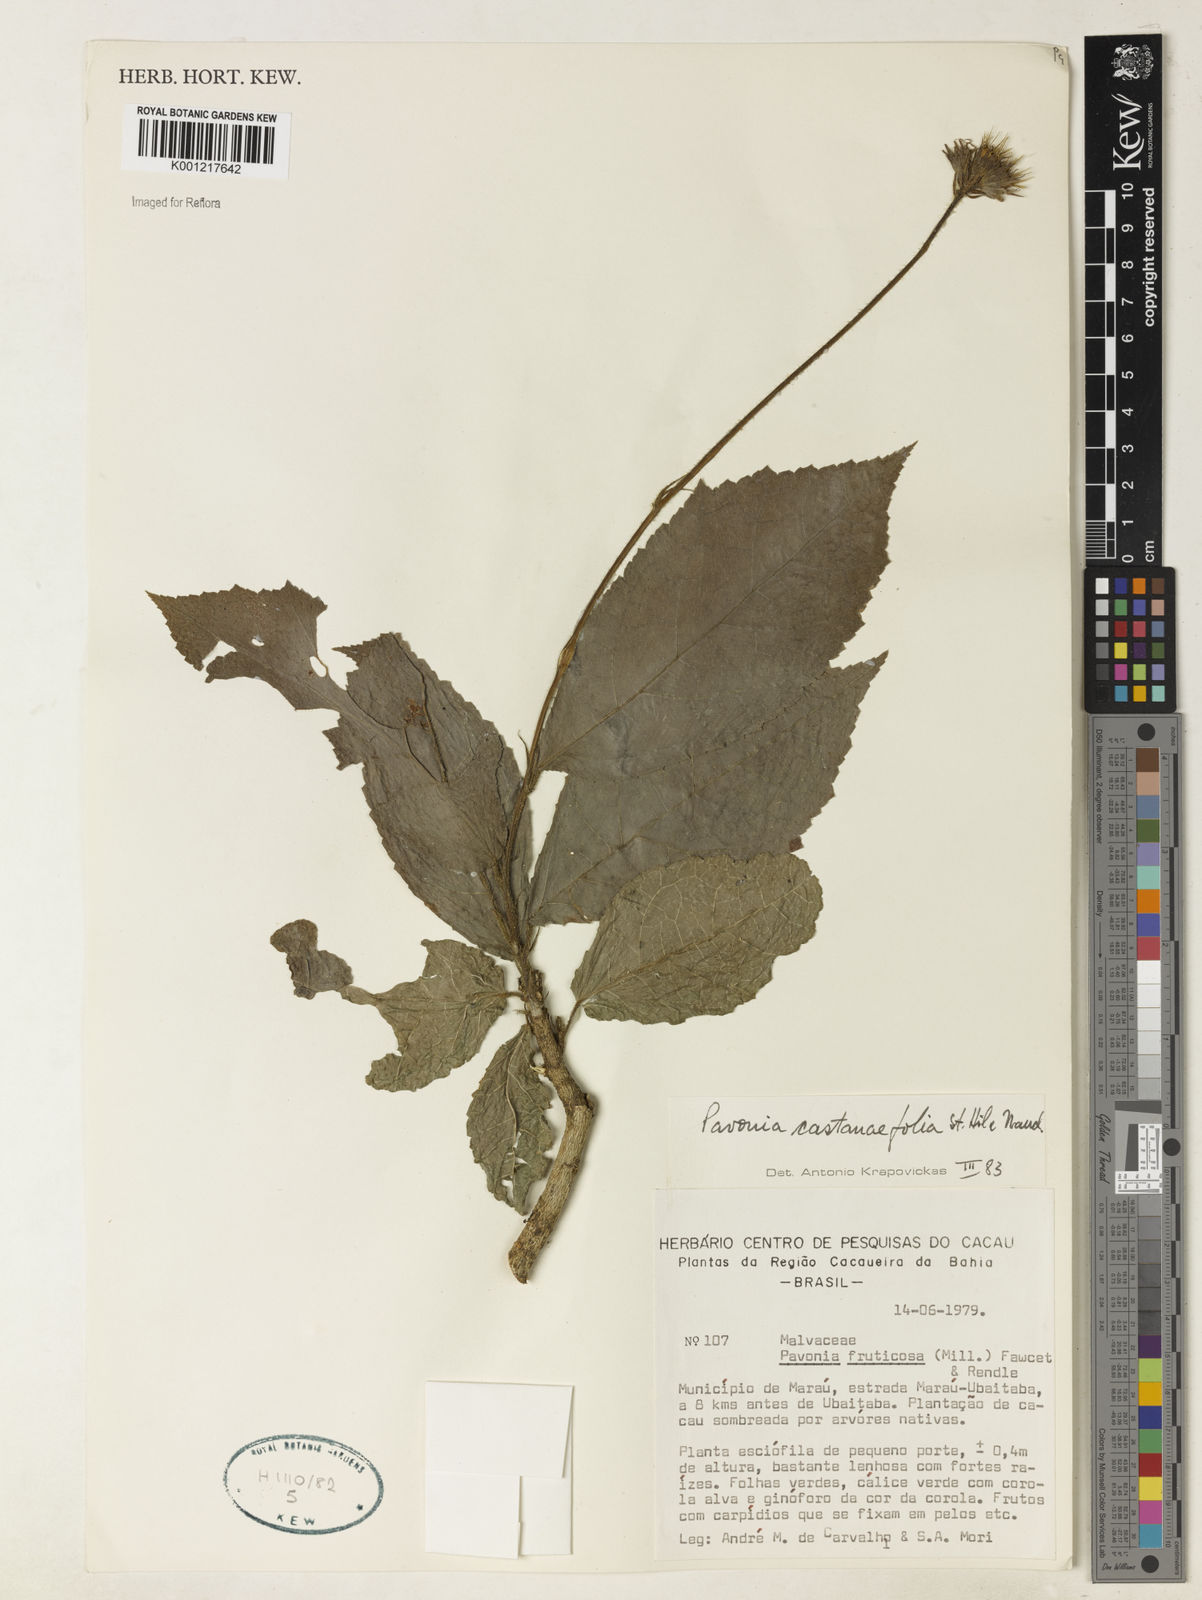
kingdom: Plantae
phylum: Tracheophyta
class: Magnoliopsida
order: Malvales
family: Malvaceae
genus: Pavonia
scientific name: Pavonia castaneifolia
